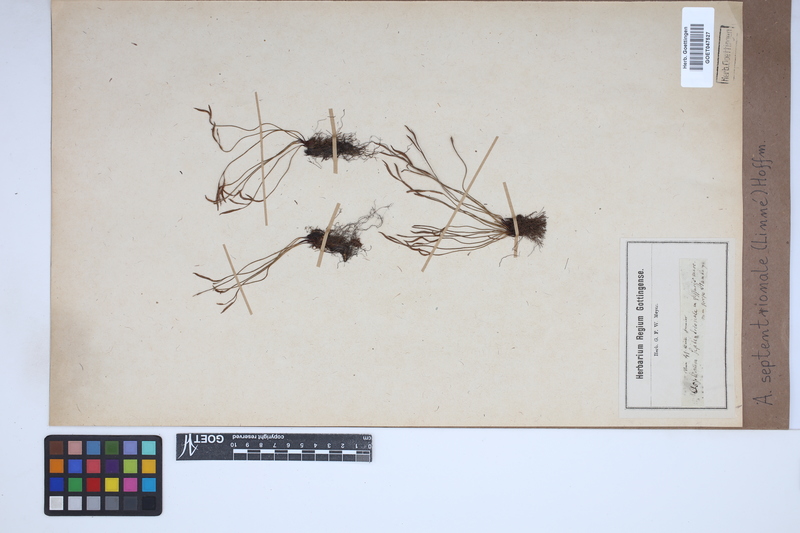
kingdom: Plantae
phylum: Tracheophyta
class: Polypodiopsida
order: Polypodiales
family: Aspleniaceae
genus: Asplenium
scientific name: Asplenium septentrionale
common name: Forked spleenwort
